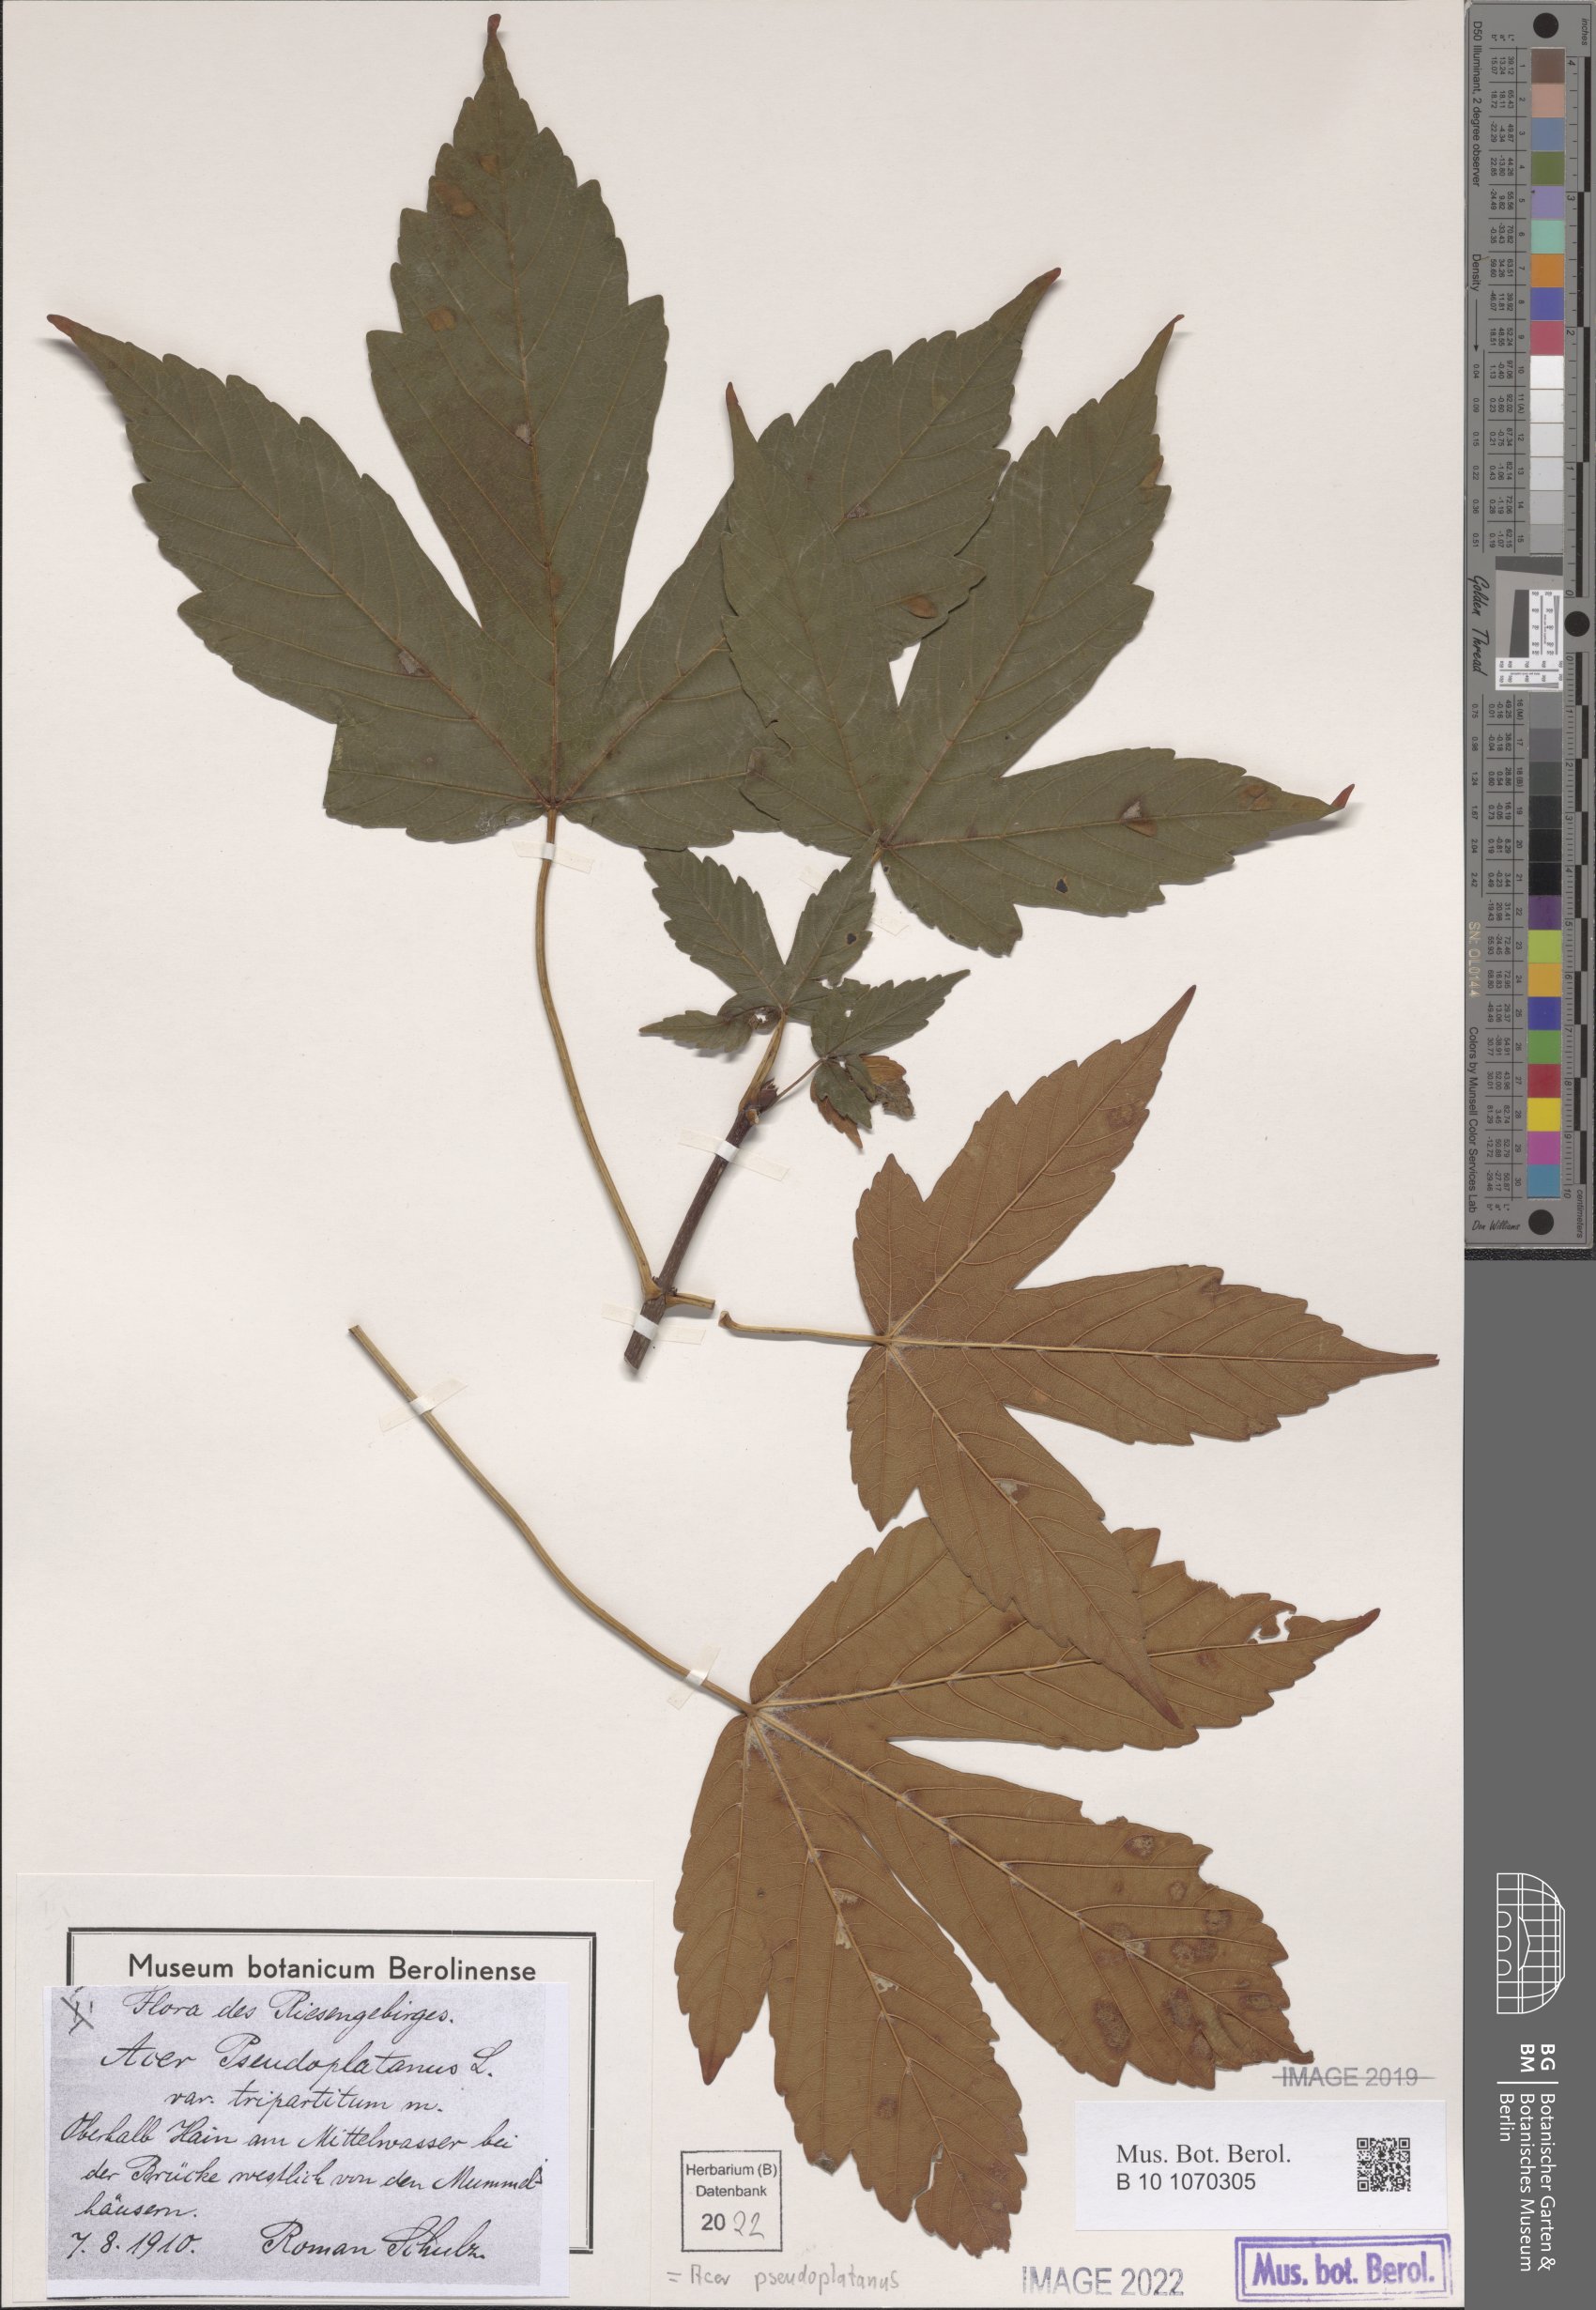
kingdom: Plantae
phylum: Tracheophyta
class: Magnoliopsida
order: Sapindales
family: Sapindaceae
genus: Acer
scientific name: Acer pseudoplatanus
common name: Sycamore
